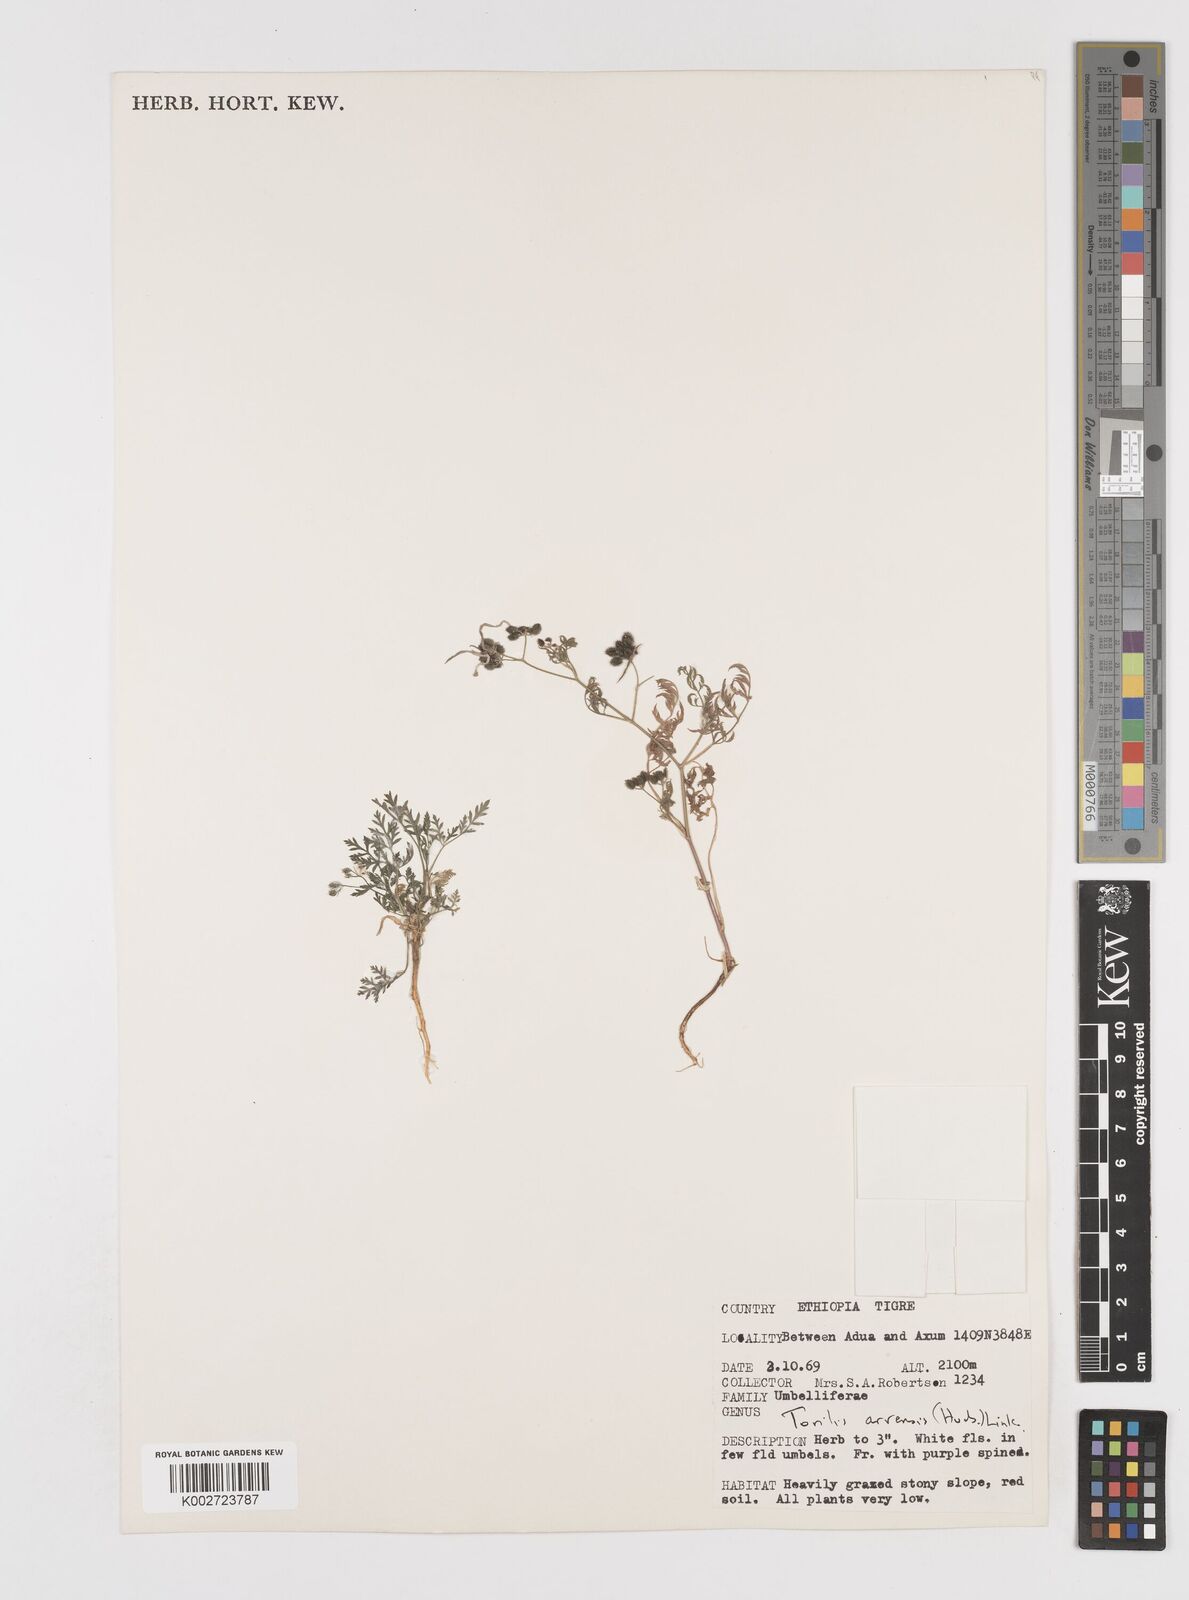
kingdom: Plantae
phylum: Tracheophyta
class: Magnoliopsida
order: Apiales
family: Apiaceae
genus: Torilis
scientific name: Torilis arvensis
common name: Spreading hedge-parsley
